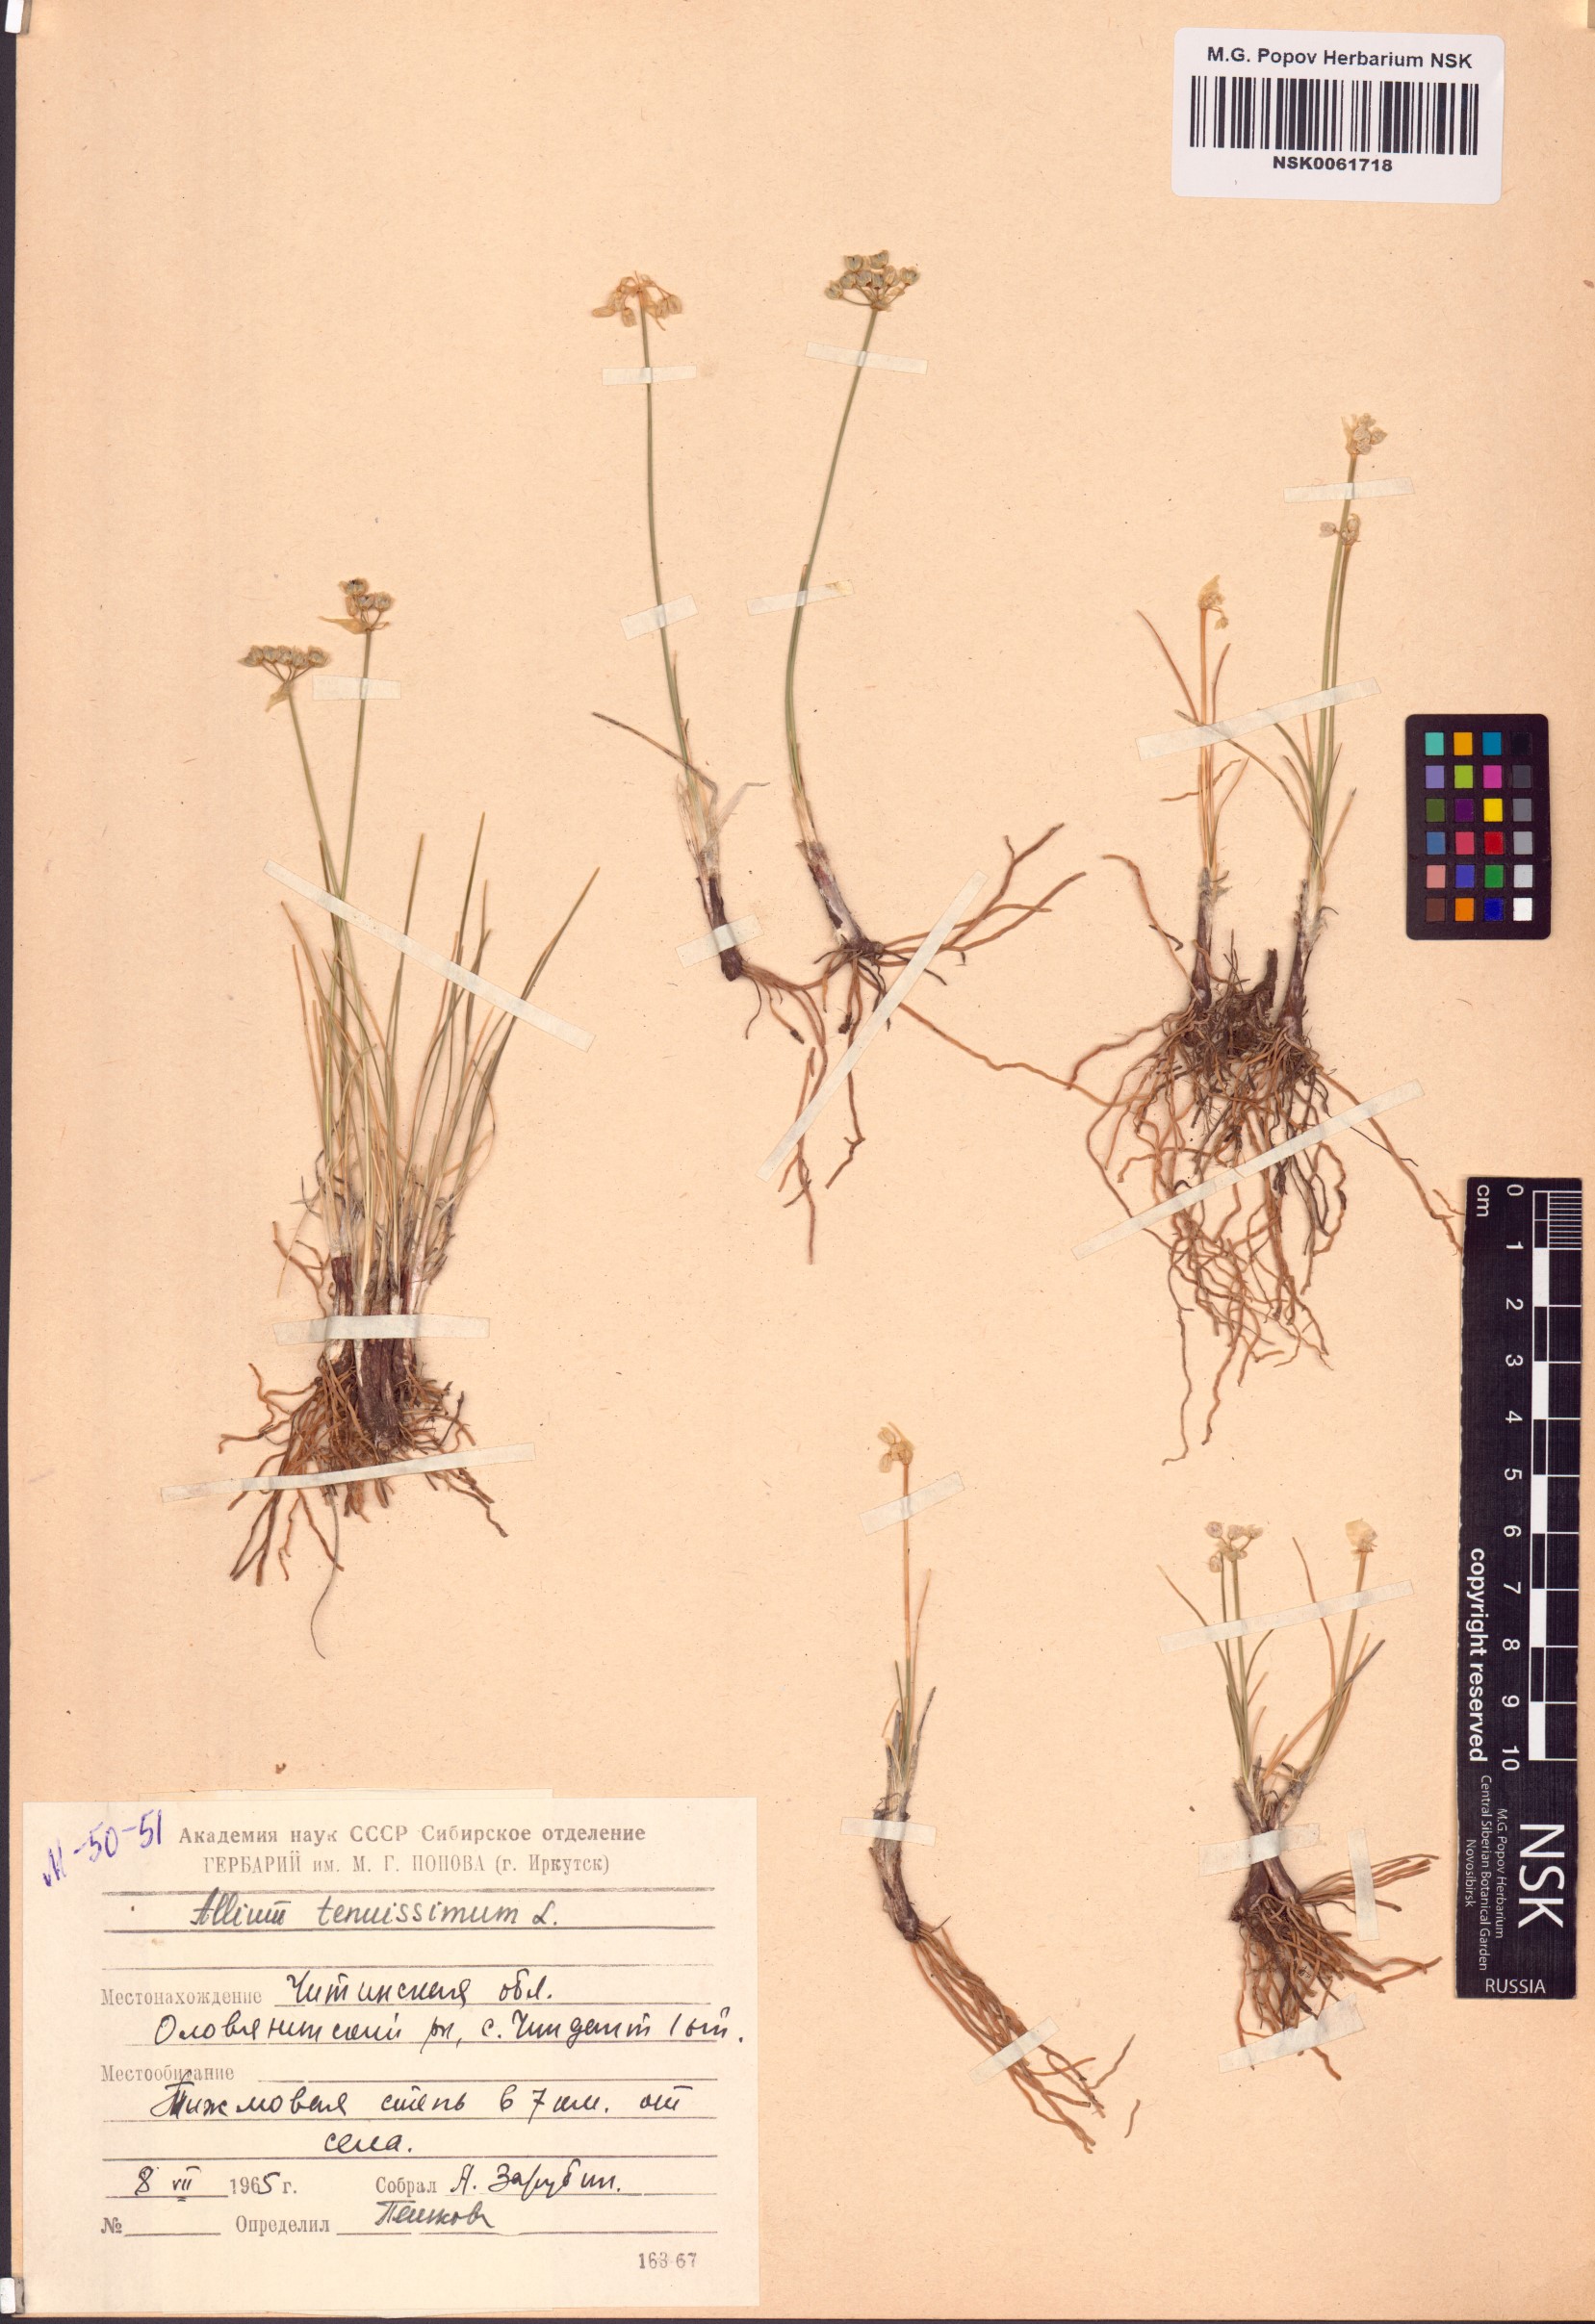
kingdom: Plantae
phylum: Tracheophyta
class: Liliopsida
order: Asparagales
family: Amaryllidaceae
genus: Allium
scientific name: Allium tenuissimum
